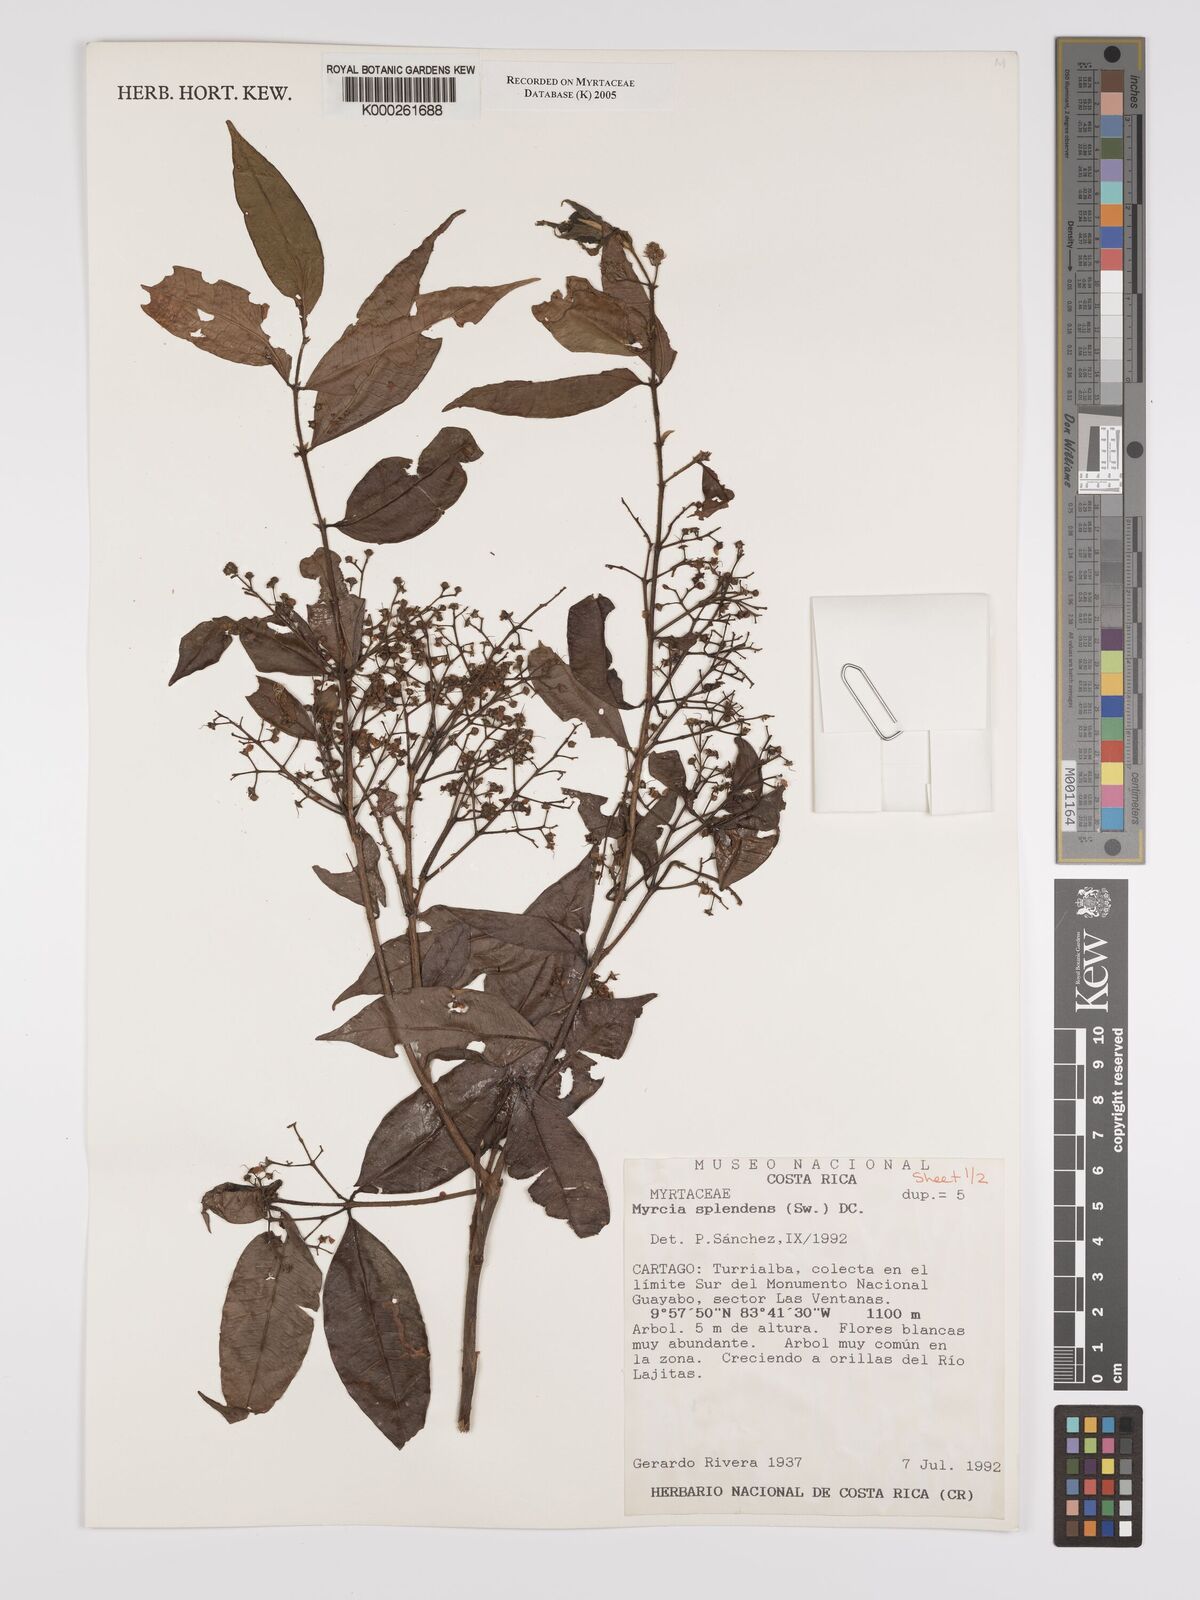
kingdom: Plantae
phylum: Tracheophyta
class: Magnoliopsida
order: Myrtales
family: Myrtaceae
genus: Myrcia
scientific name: Myrcia splendens
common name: Surinam cherry
